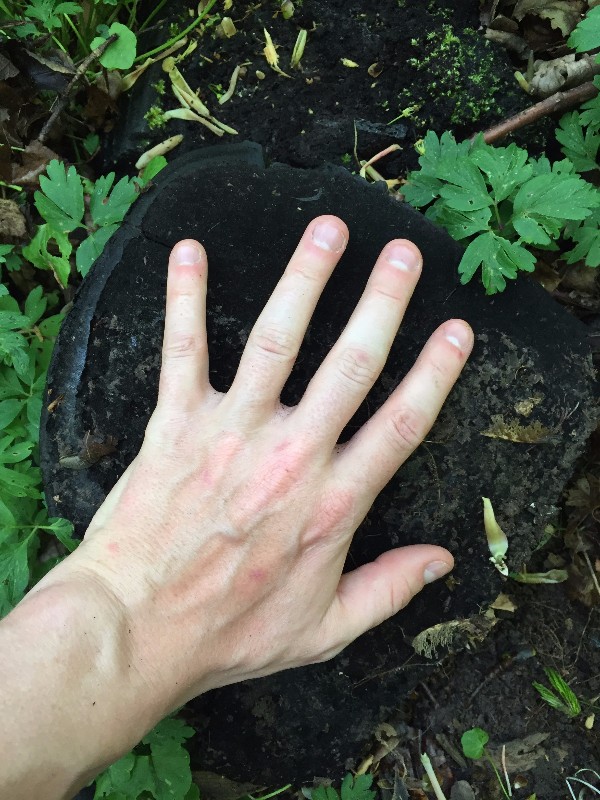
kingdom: Fungi
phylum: Basidiomycota
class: Agaricomycetes
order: Hymenochaetales
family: Hymenochaetaceae
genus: Phellinus
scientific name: Phellinus populicola
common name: poppel-ildporesvamp
